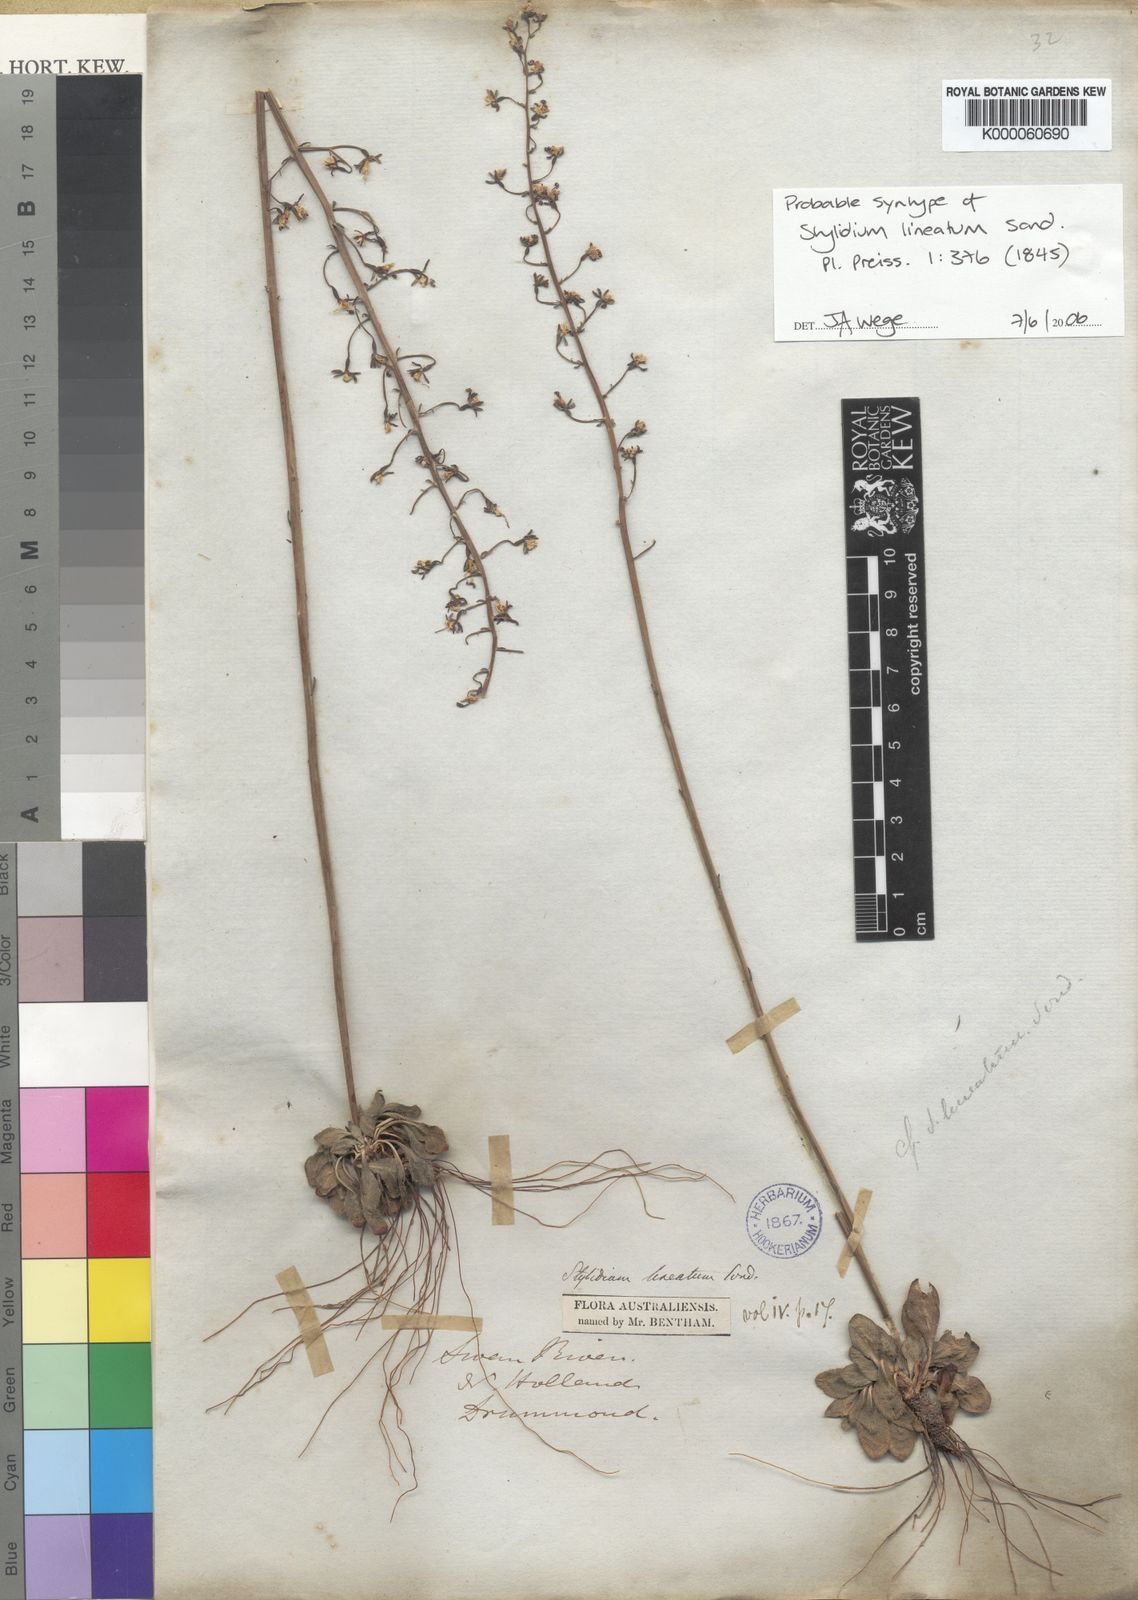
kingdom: Plantae
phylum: Tracheophyta
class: Magnoliopsida
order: Asterales
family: Stylidiaceae
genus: Stylidium
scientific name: Stylidium lineatum
